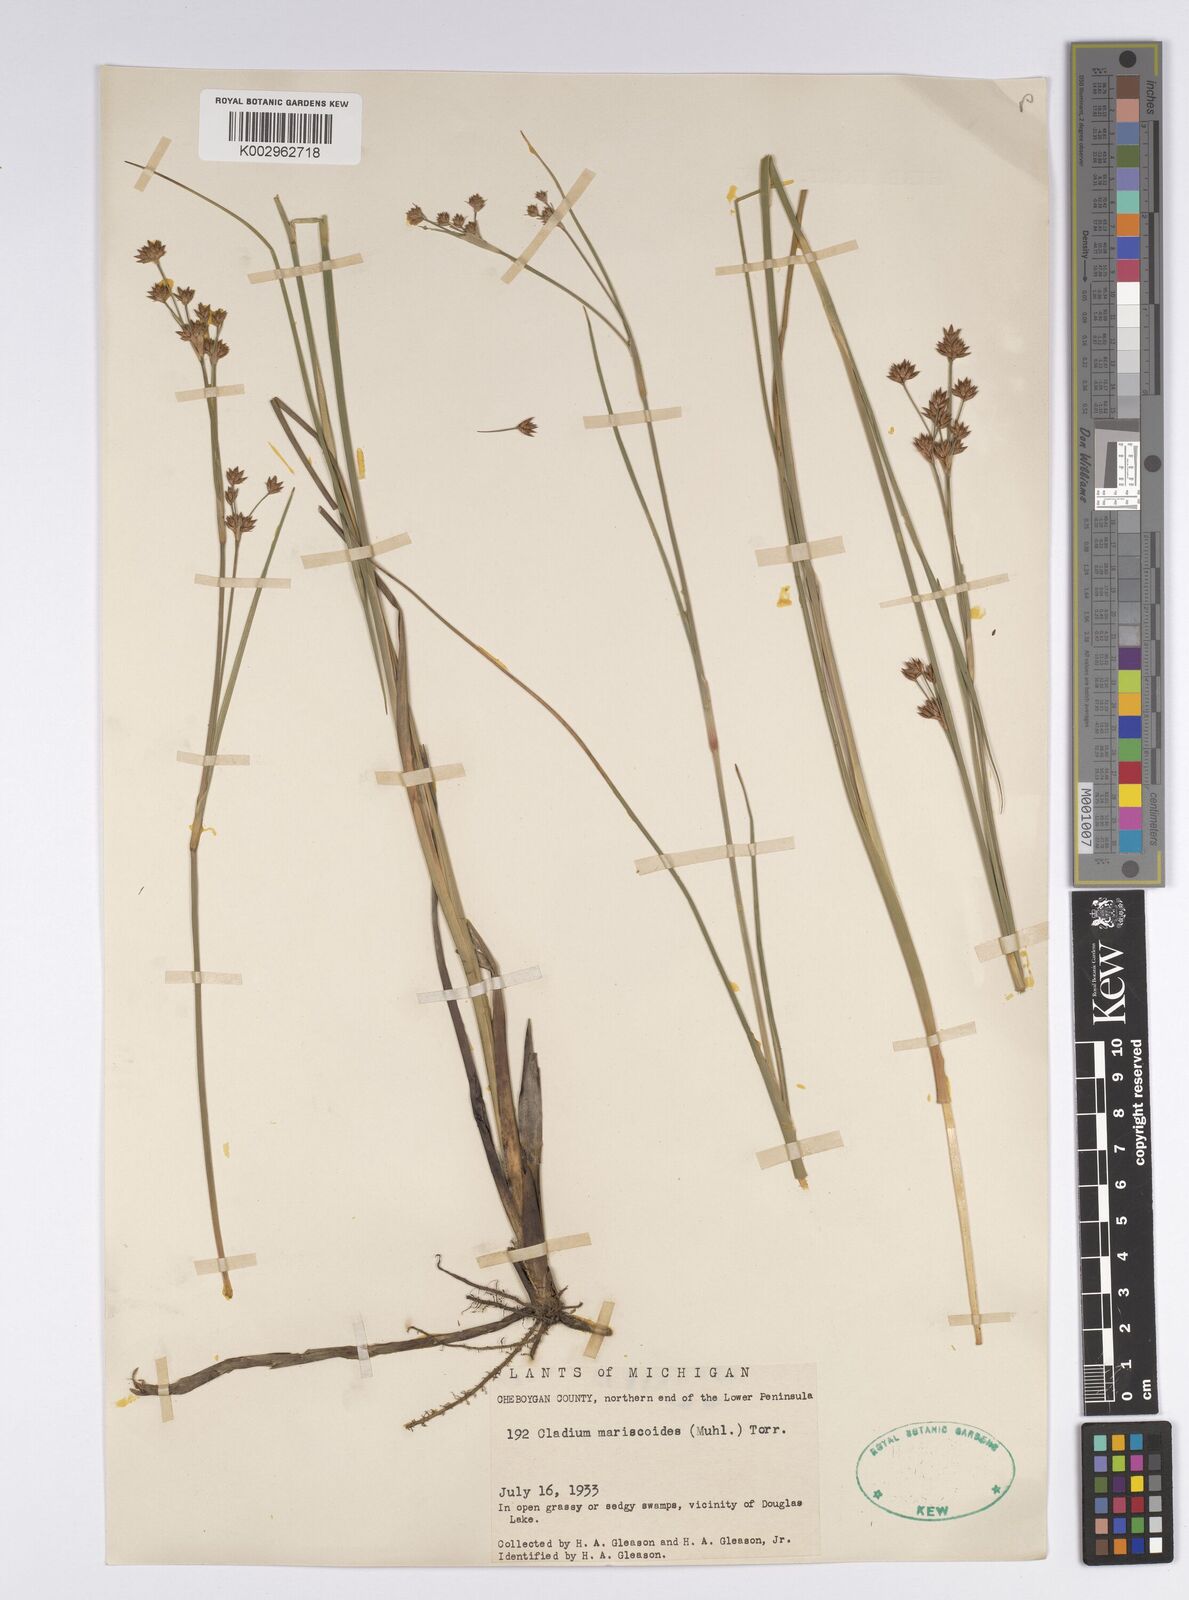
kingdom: Plantae
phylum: Tracheophyta
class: Liliopsida
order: Poales
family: Cyperaceae
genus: Cladium
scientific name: Cladium mariscoides
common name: Smooth sawgrass
